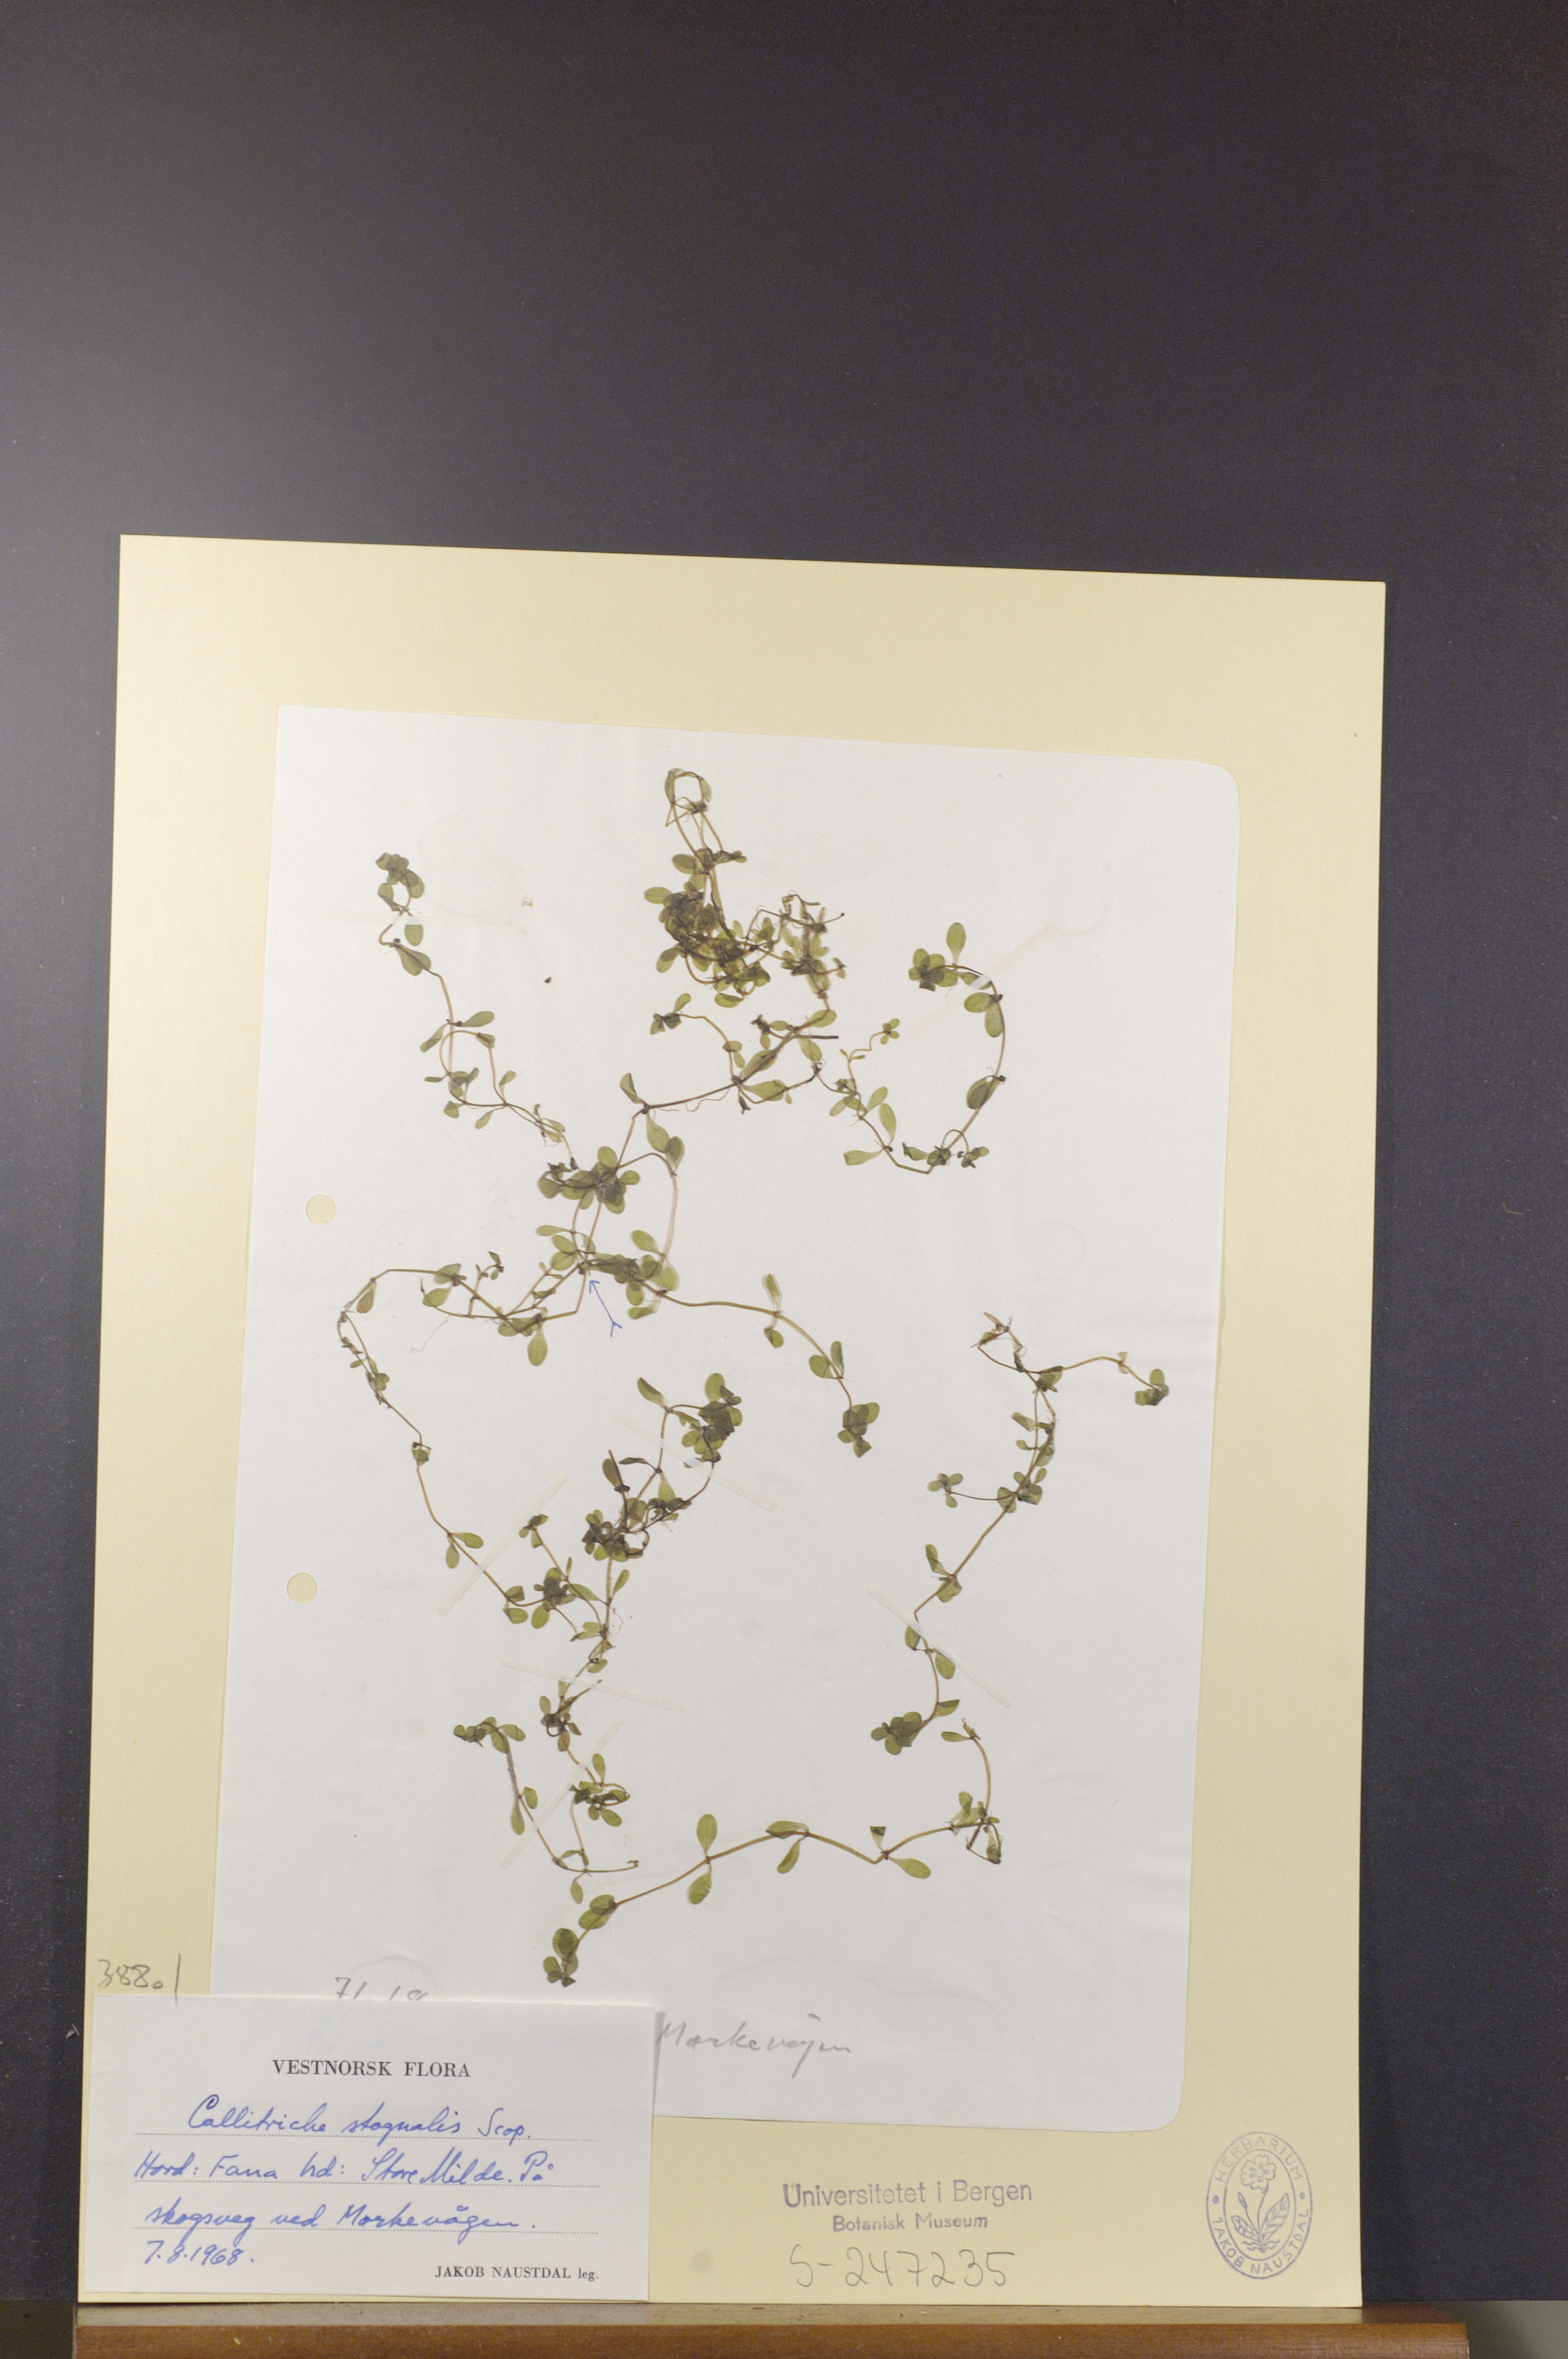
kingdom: Plantae
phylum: Tracheophyta
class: Magnoliopsida
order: Lamiales
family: Plantaginaceae
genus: Callitriche
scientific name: Callitriche stagnalis
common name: Common water-starwort
